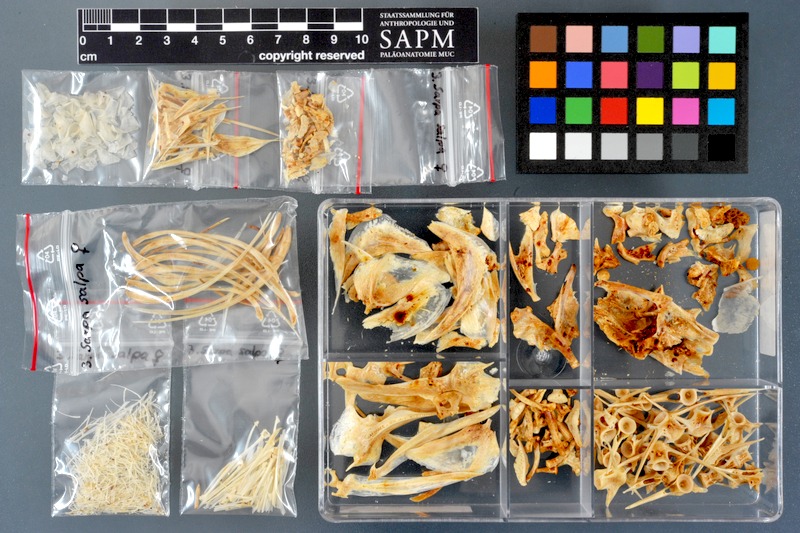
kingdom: Animalia
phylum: Chordata
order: Perciformes
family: Sparidae
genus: Sarpa
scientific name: Sarpa salpa
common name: Salema
